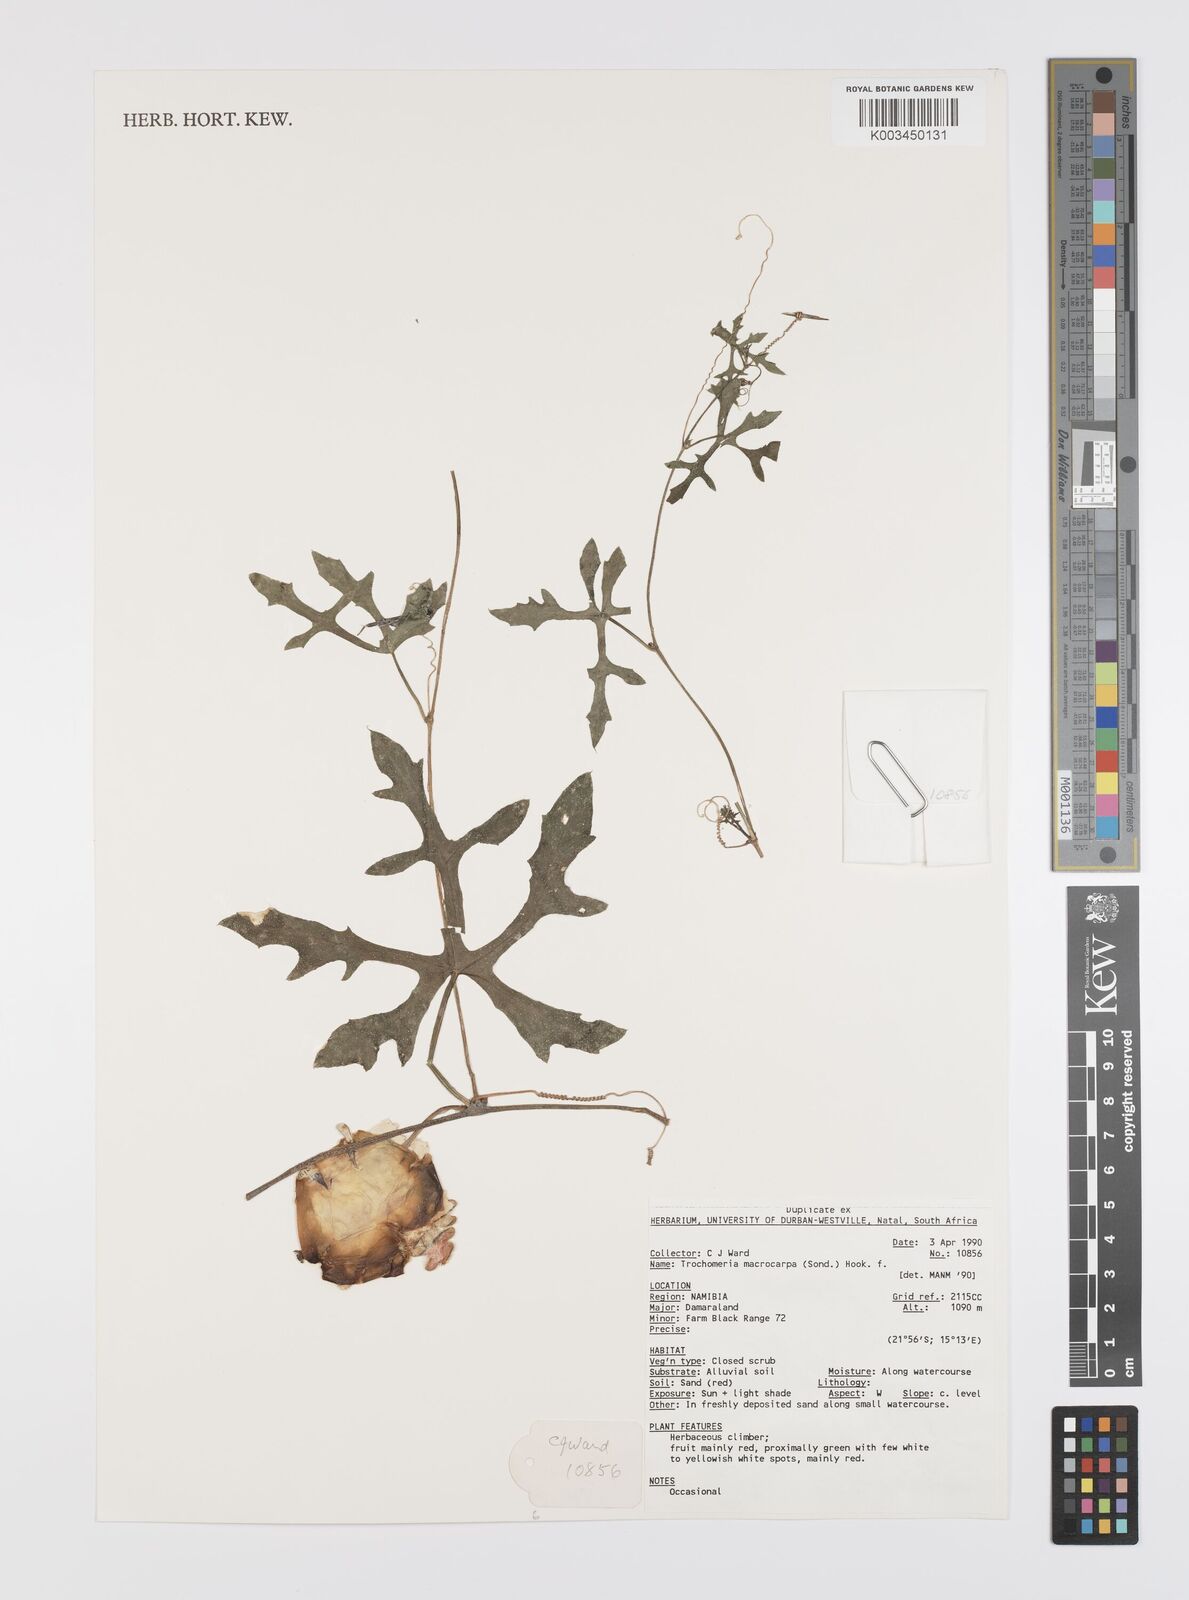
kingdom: Plantae
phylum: Tracheophyta
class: Magnoliopsida
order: Cucurbitales
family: Cucurbitaceae
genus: Trochomeria
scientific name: Trochomeria macrocarpa
